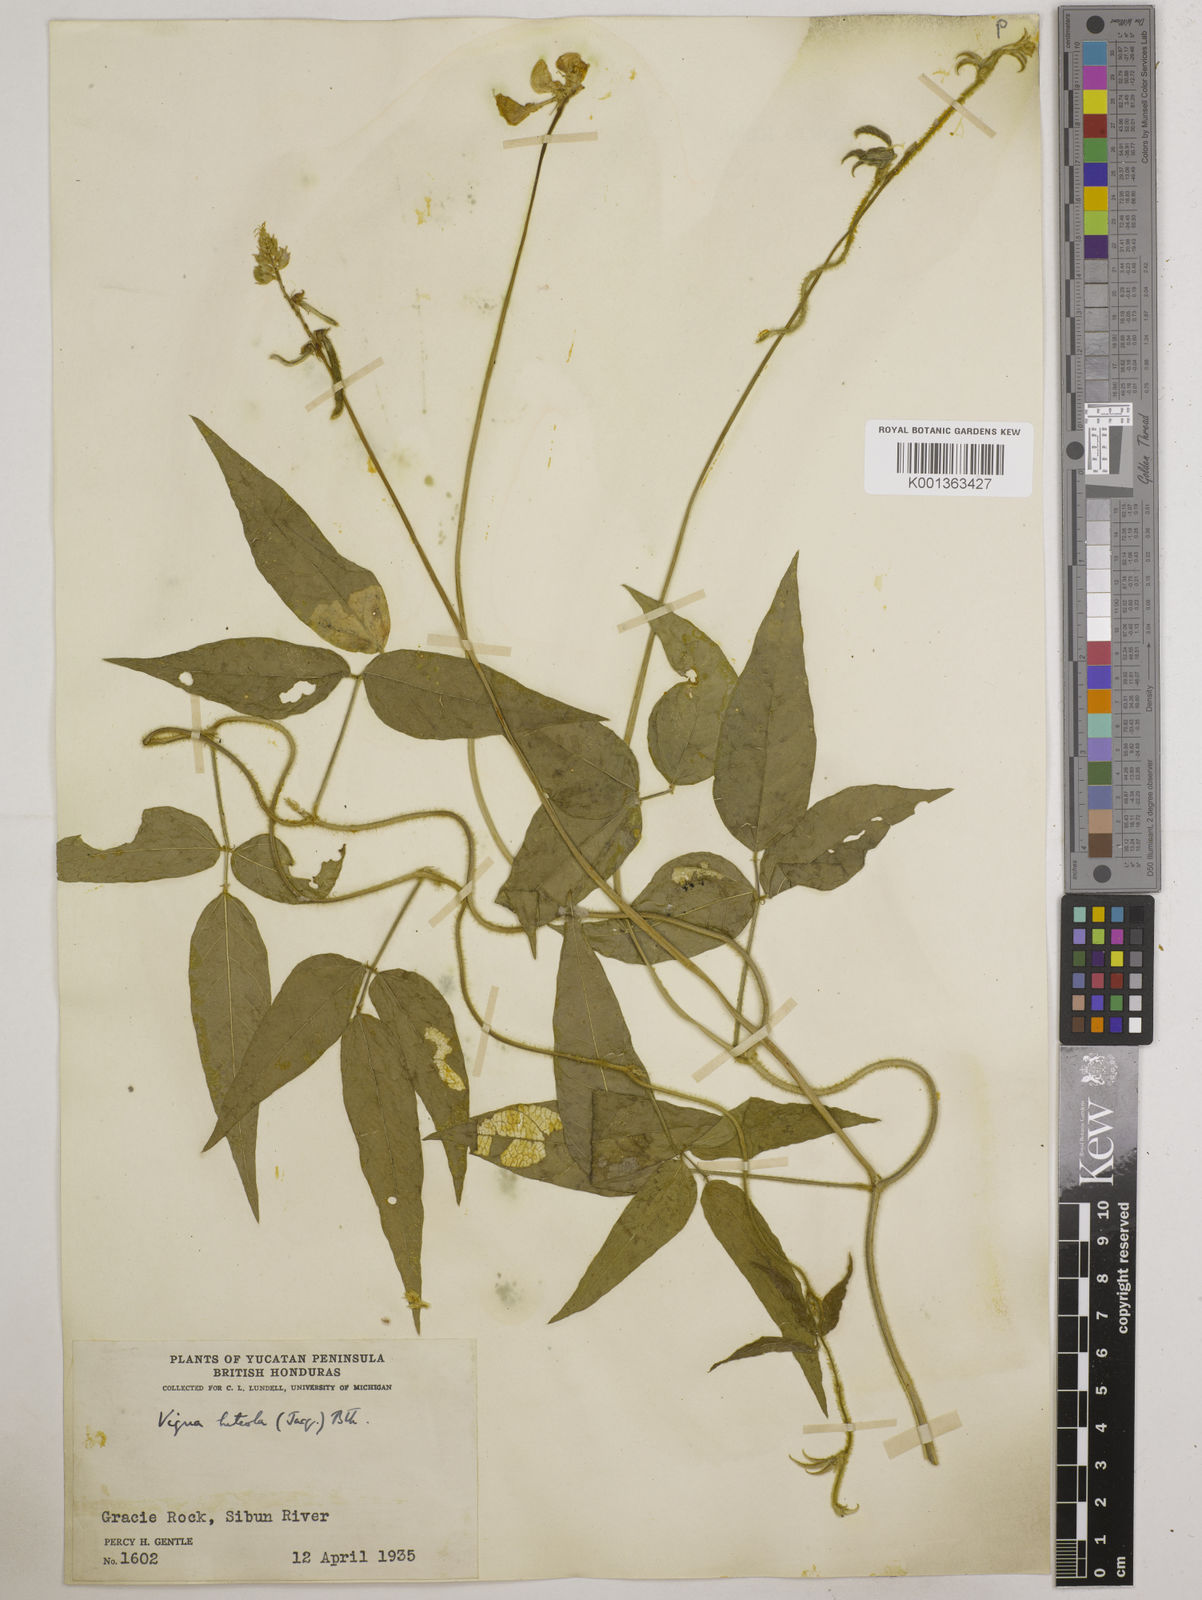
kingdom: Plantae
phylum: Tracheophyta
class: Magnoliopsida
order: Fabales
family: Fabaceae
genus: Vigna
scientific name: Vigna luteola
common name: Hairypod cowpea
